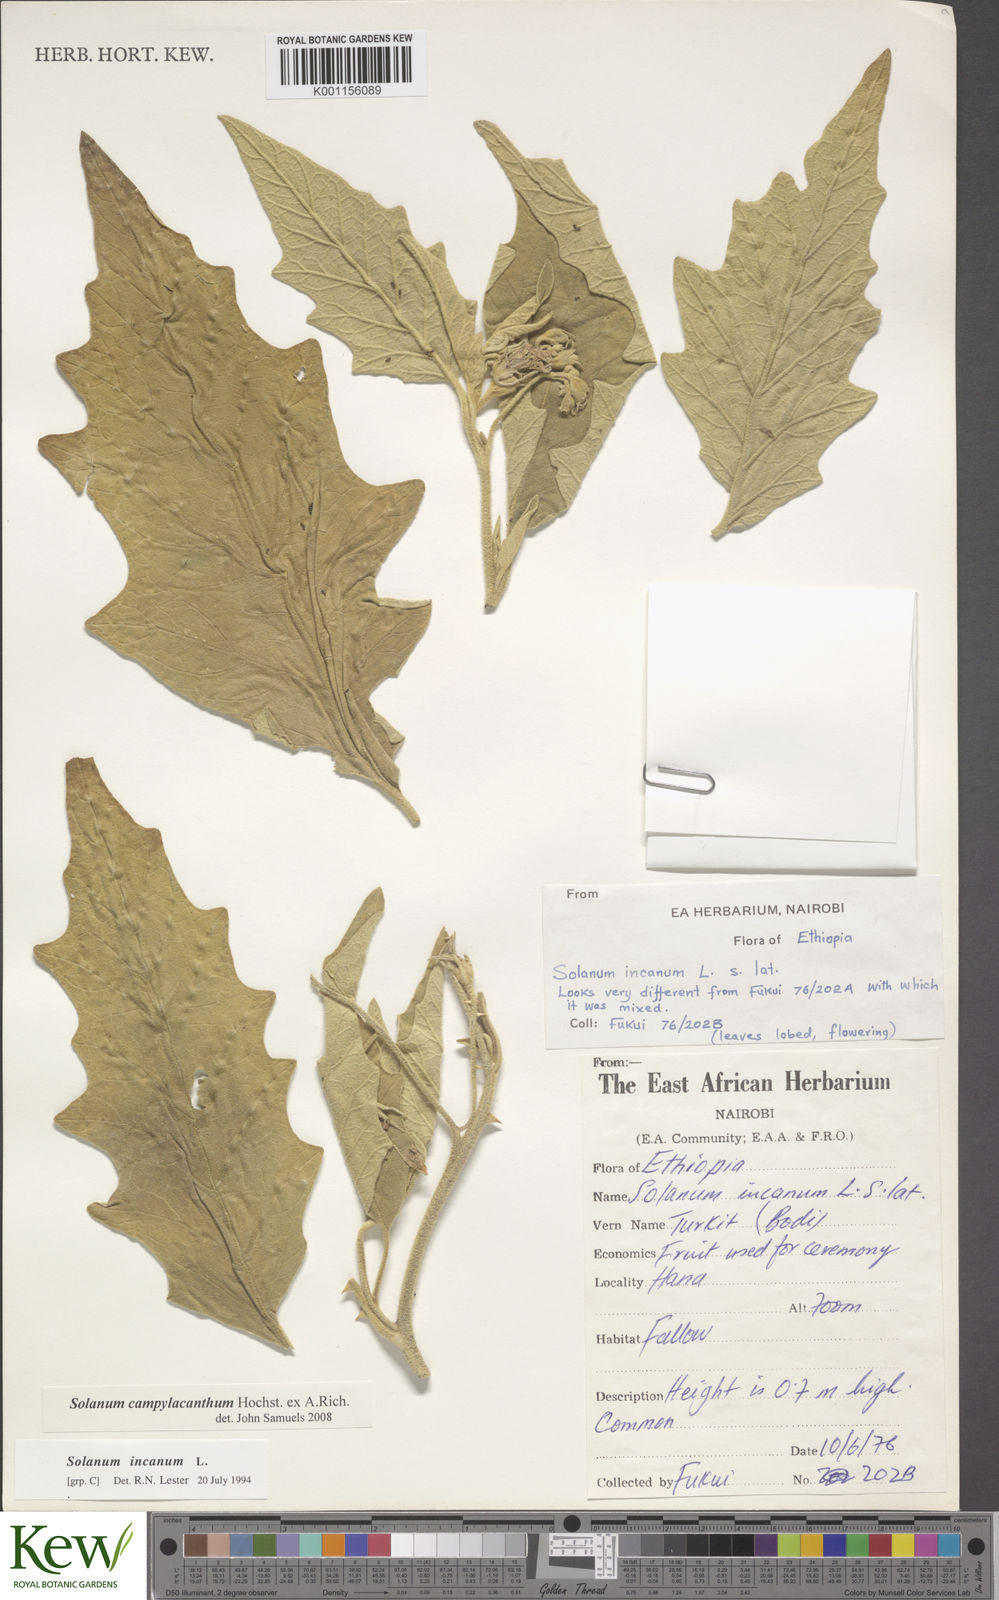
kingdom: Plantae
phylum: Tracheophyta
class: Magnoliopsida
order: Solanales
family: Solanaceae
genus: Solanum
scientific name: Solanum campylacanthum
